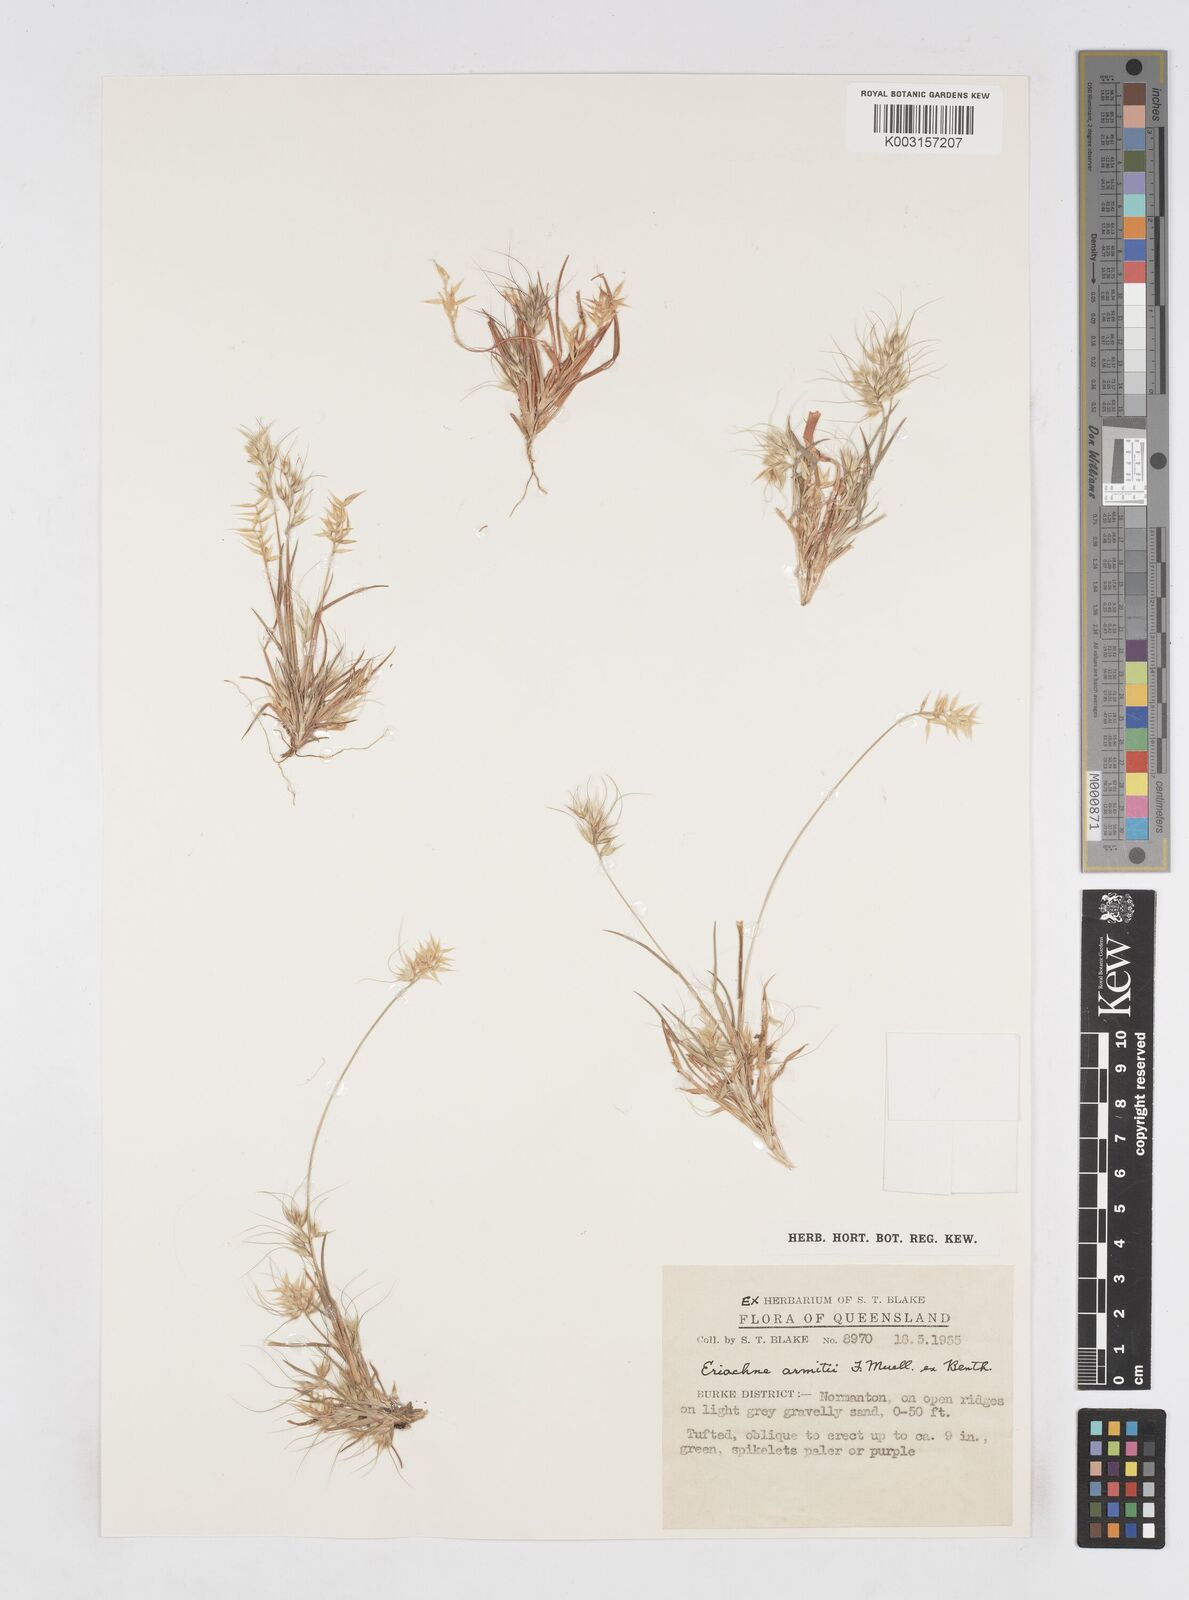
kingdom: Plantae
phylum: Tracheophyta
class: Liliopsida
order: Poales
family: Poaceae
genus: Eriachne
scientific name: Eriachne armitii
